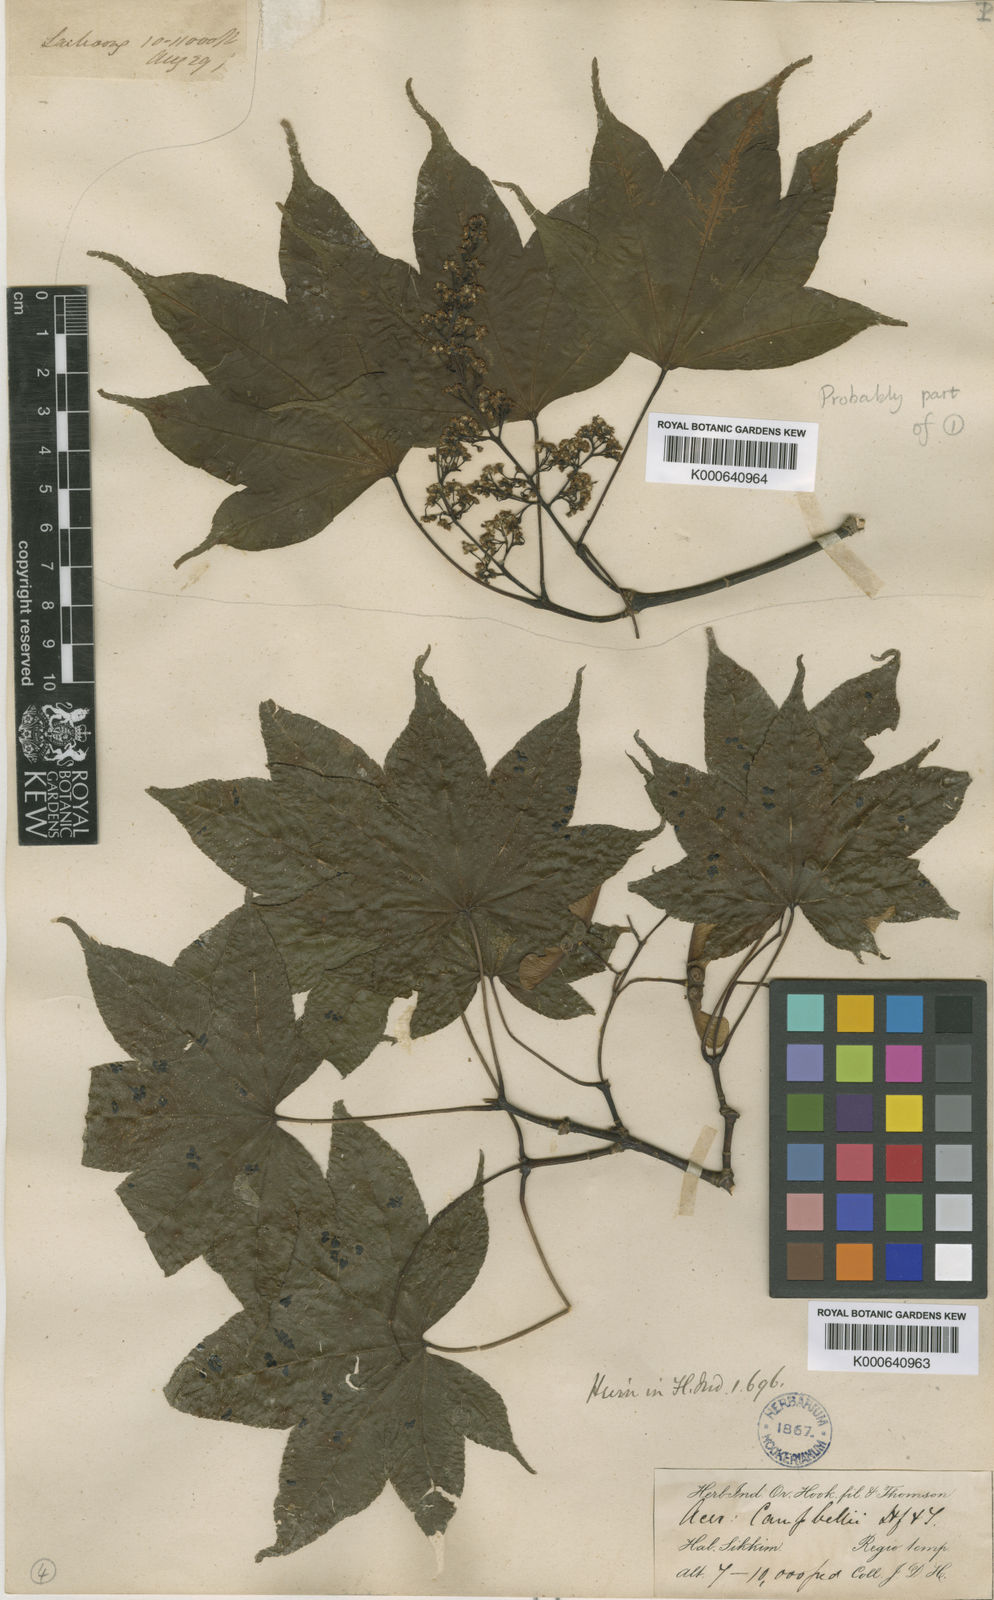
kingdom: Plantae
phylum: Tracheophyta
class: Magnoliopsida
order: Sapindales
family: Sapindaceae
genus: Acer
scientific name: Acer
